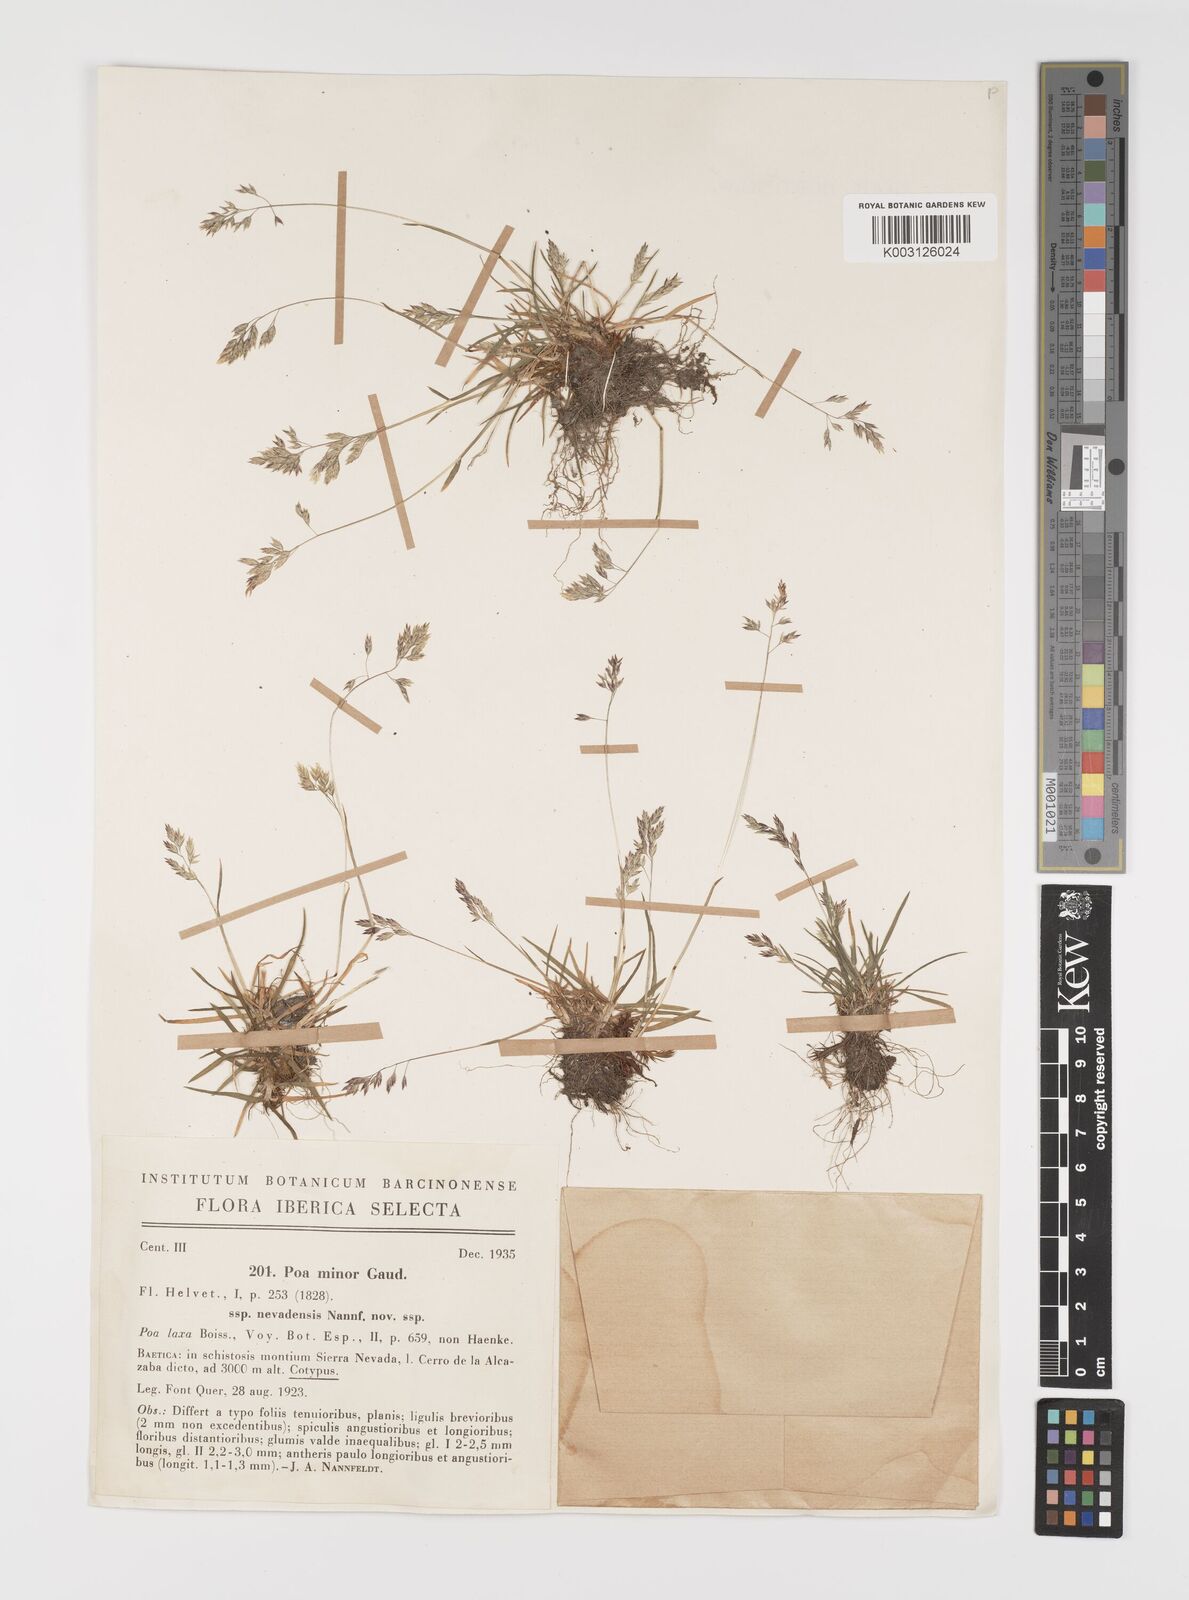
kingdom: Plantae
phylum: Tracheophyta
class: Liliopsida
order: Poales
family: Poaceae
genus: Poa
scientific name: Poa minor
